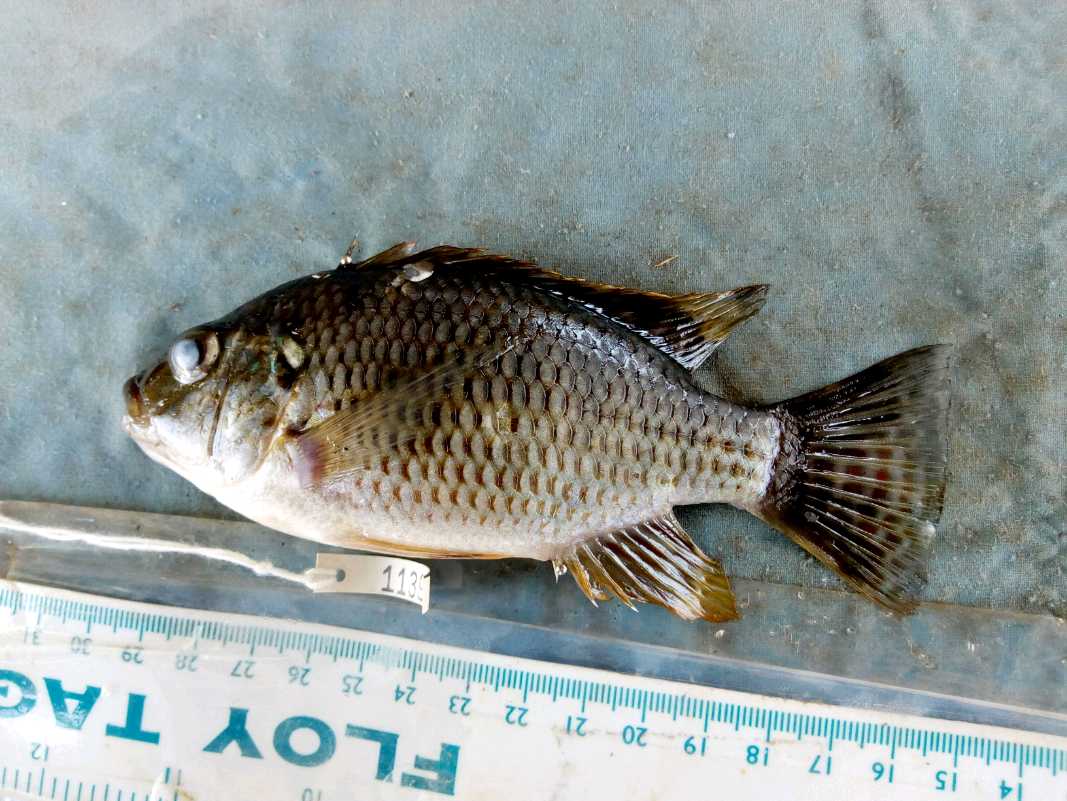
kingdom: Animalia
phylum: Chordata
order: Perciformes
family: Cichlidae
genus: Coptodon
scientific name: Coptodon zillii
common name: Redbelly tilapia
